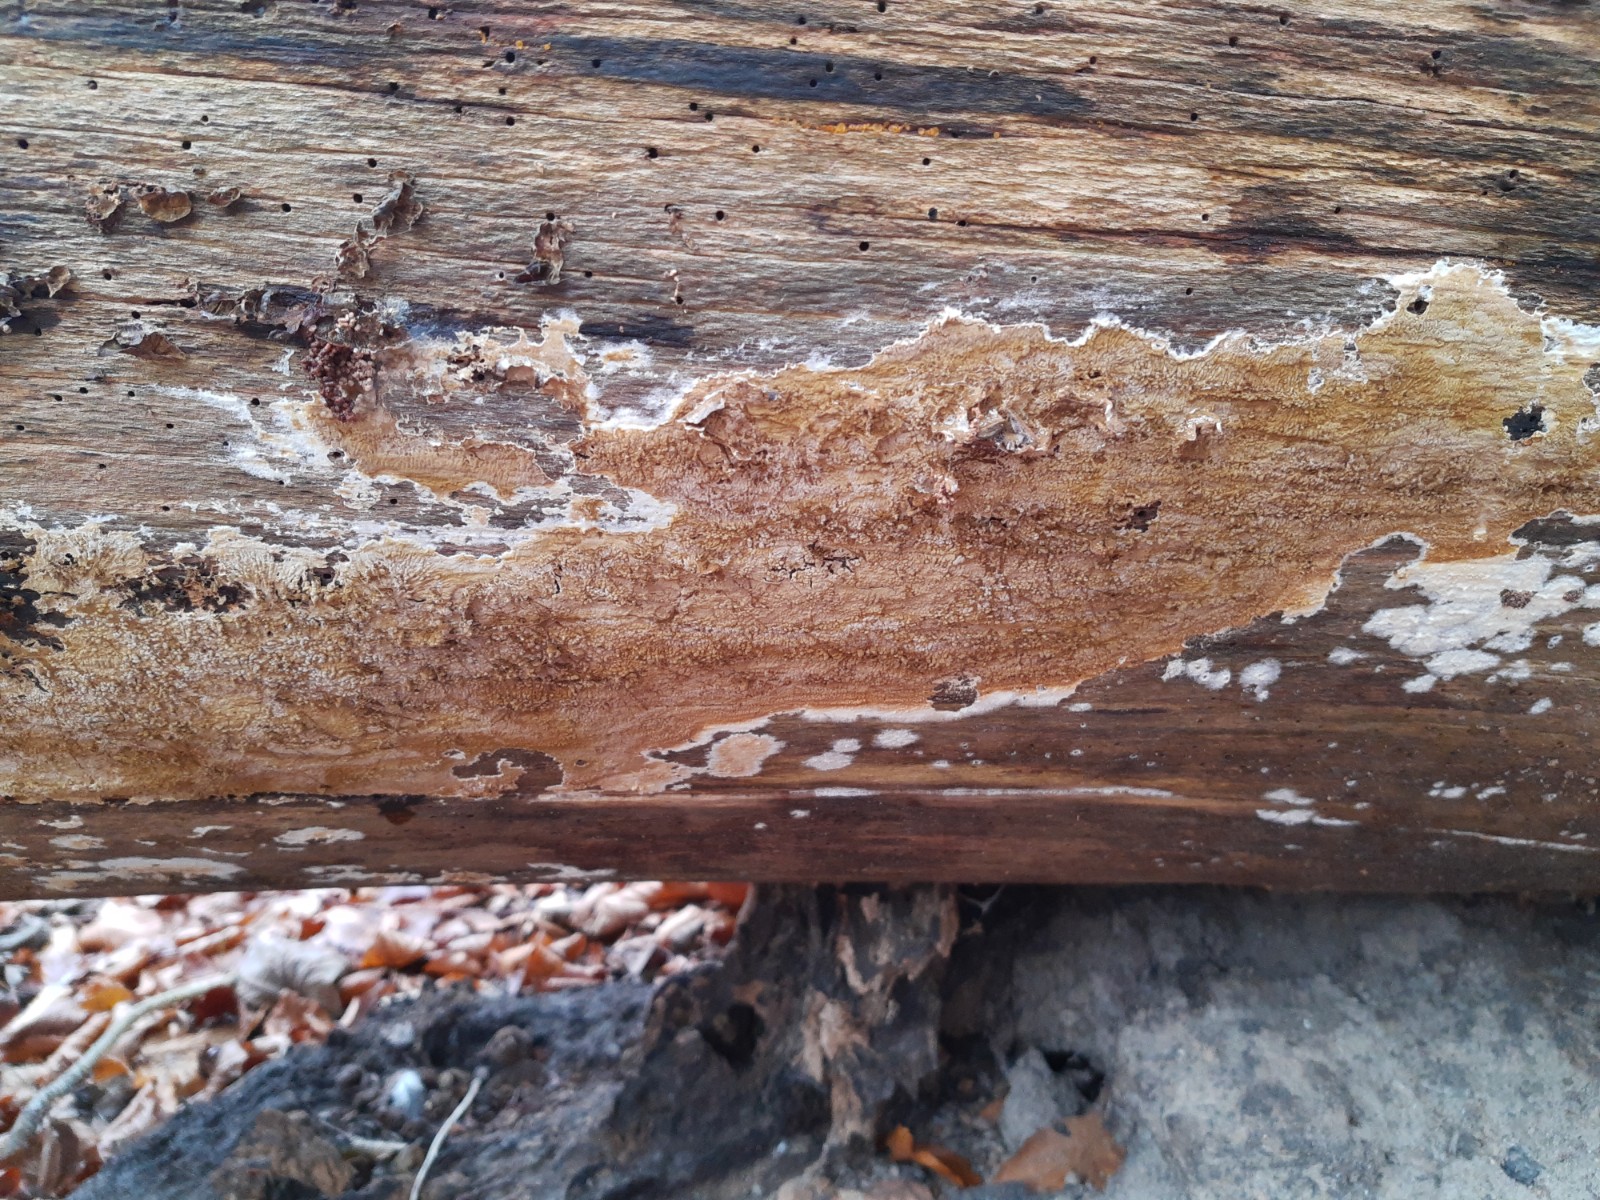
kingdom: Fungi
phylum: Basidiomycota
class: Agaricomycetes
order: Boletales
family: Coniophoraceae
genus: Coniophora
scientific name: Coniophora puteana
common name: gul tømmersvamp
